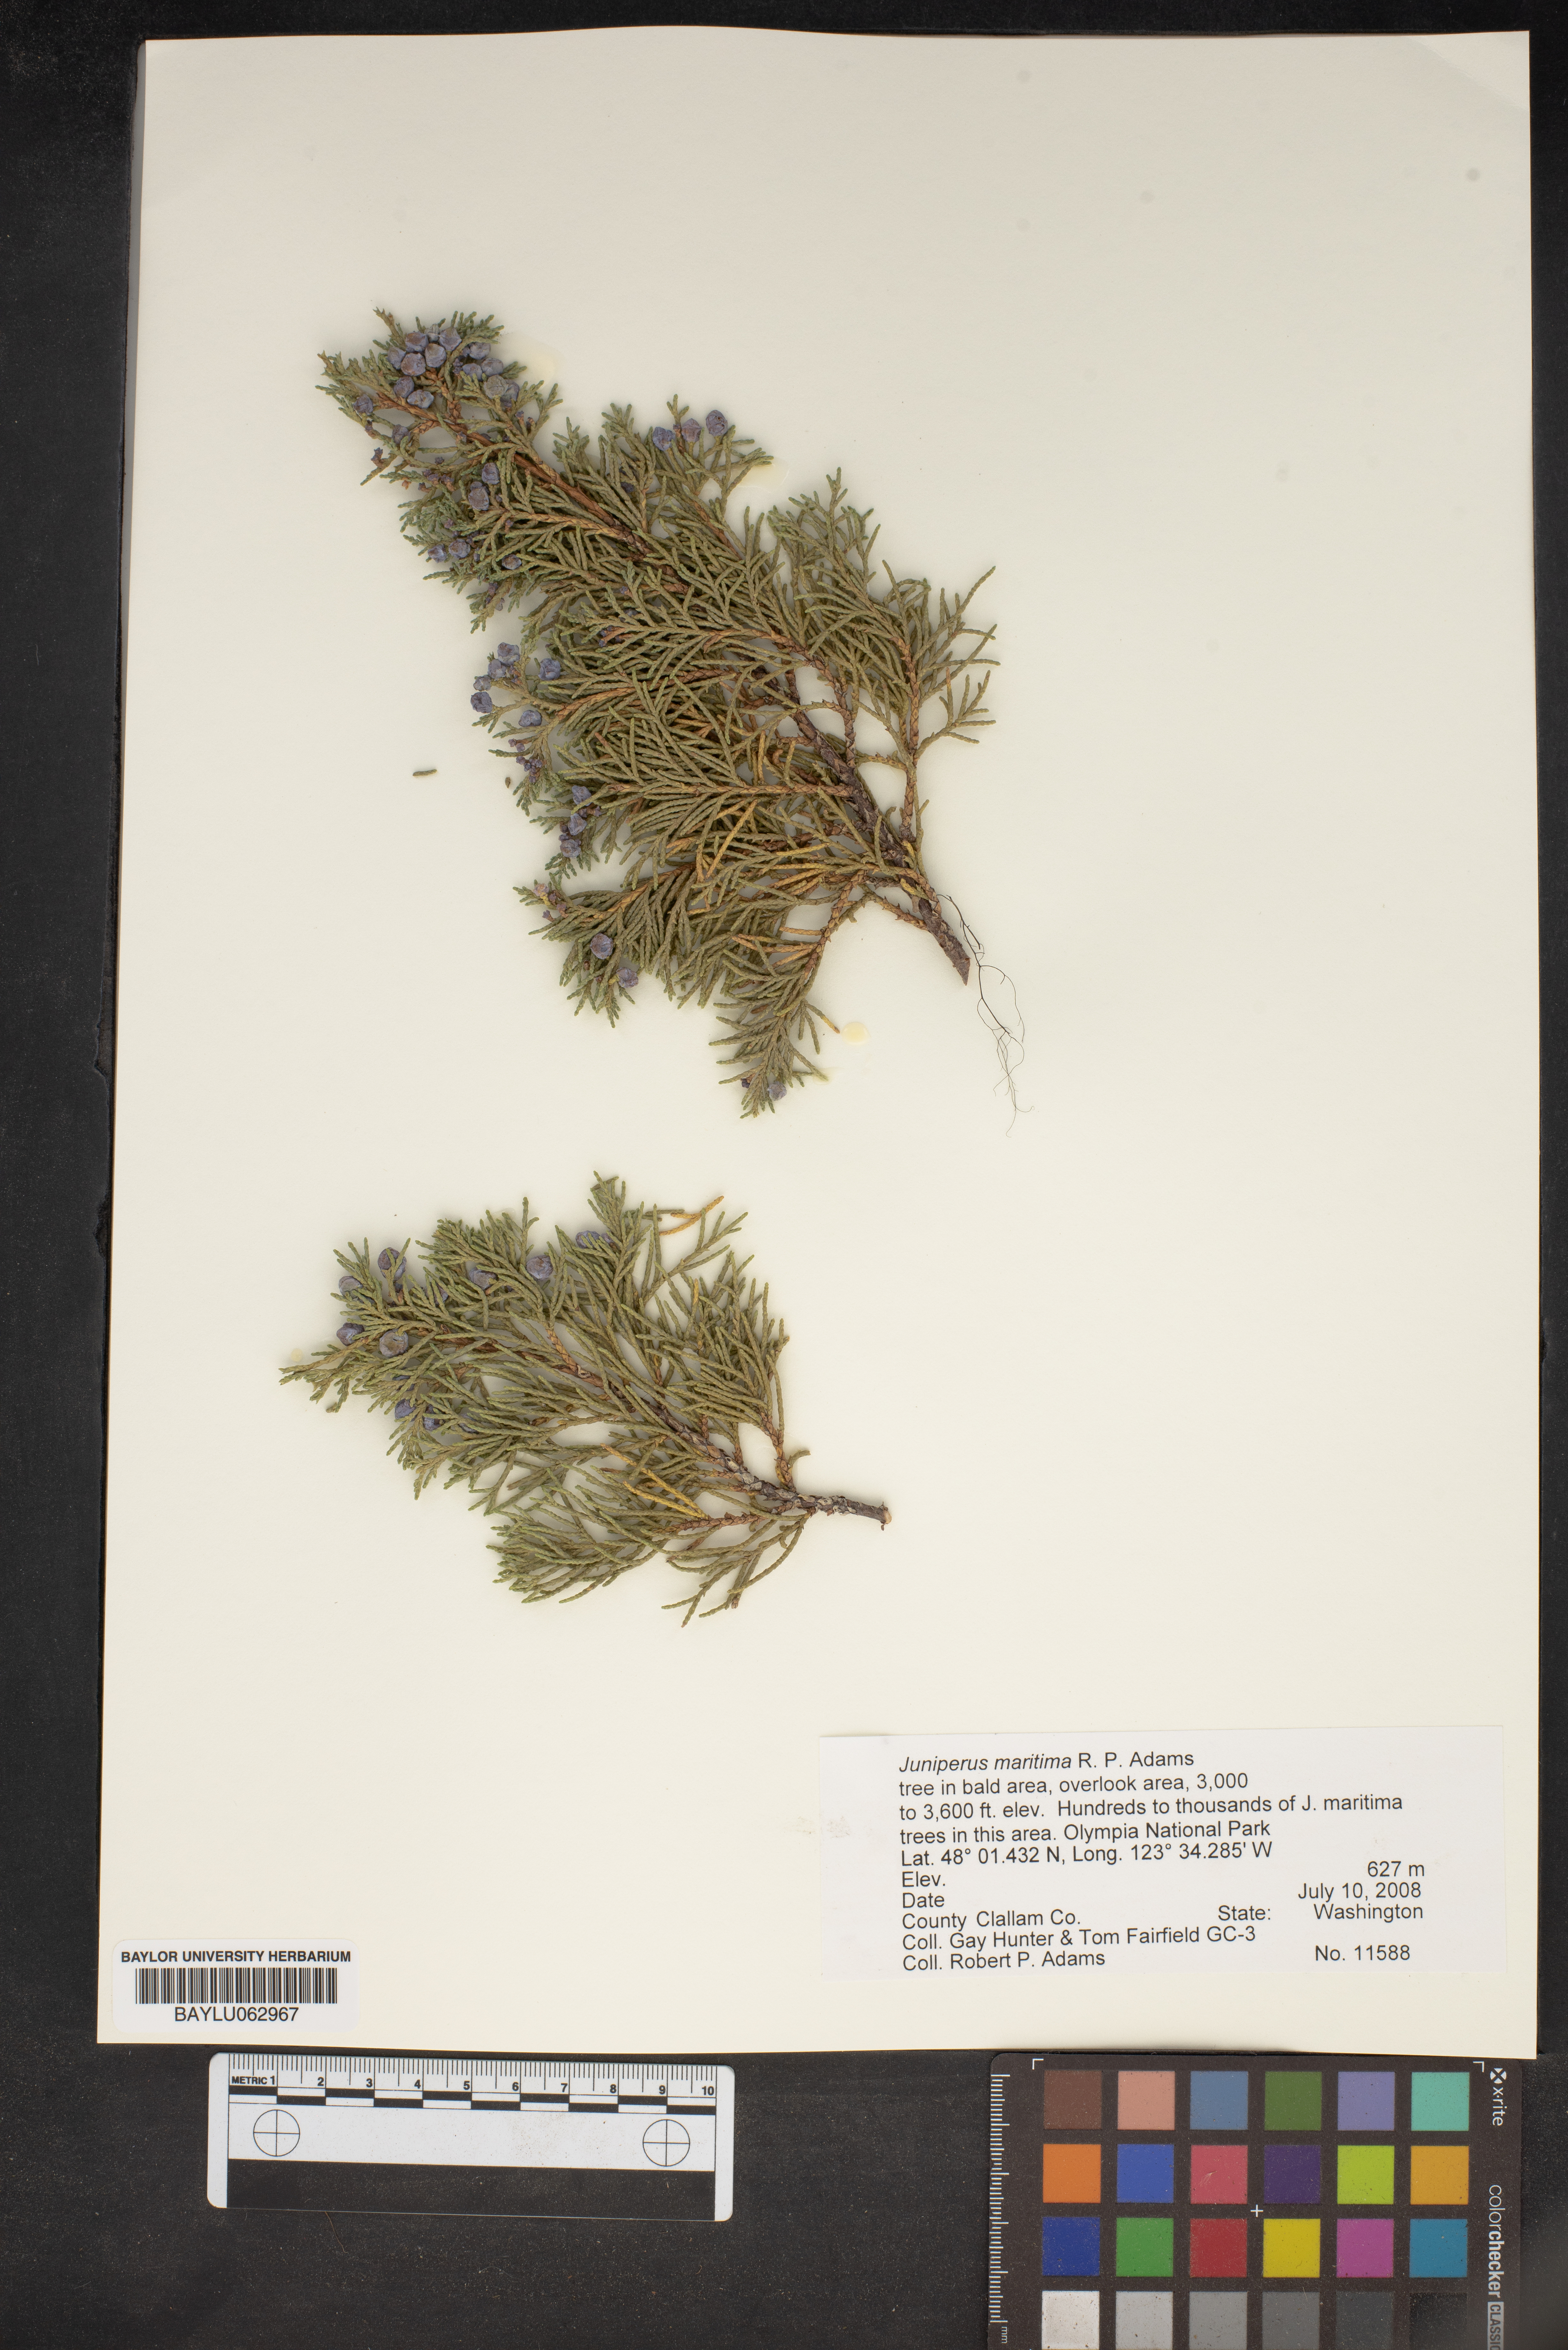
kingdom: Plantae
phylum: Tracheophyta
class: Pinopsida
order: Pinales
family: Cupressaceae
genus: Juniperus
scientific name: Juniperus scopulorum
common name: Rocky mountain juniper
